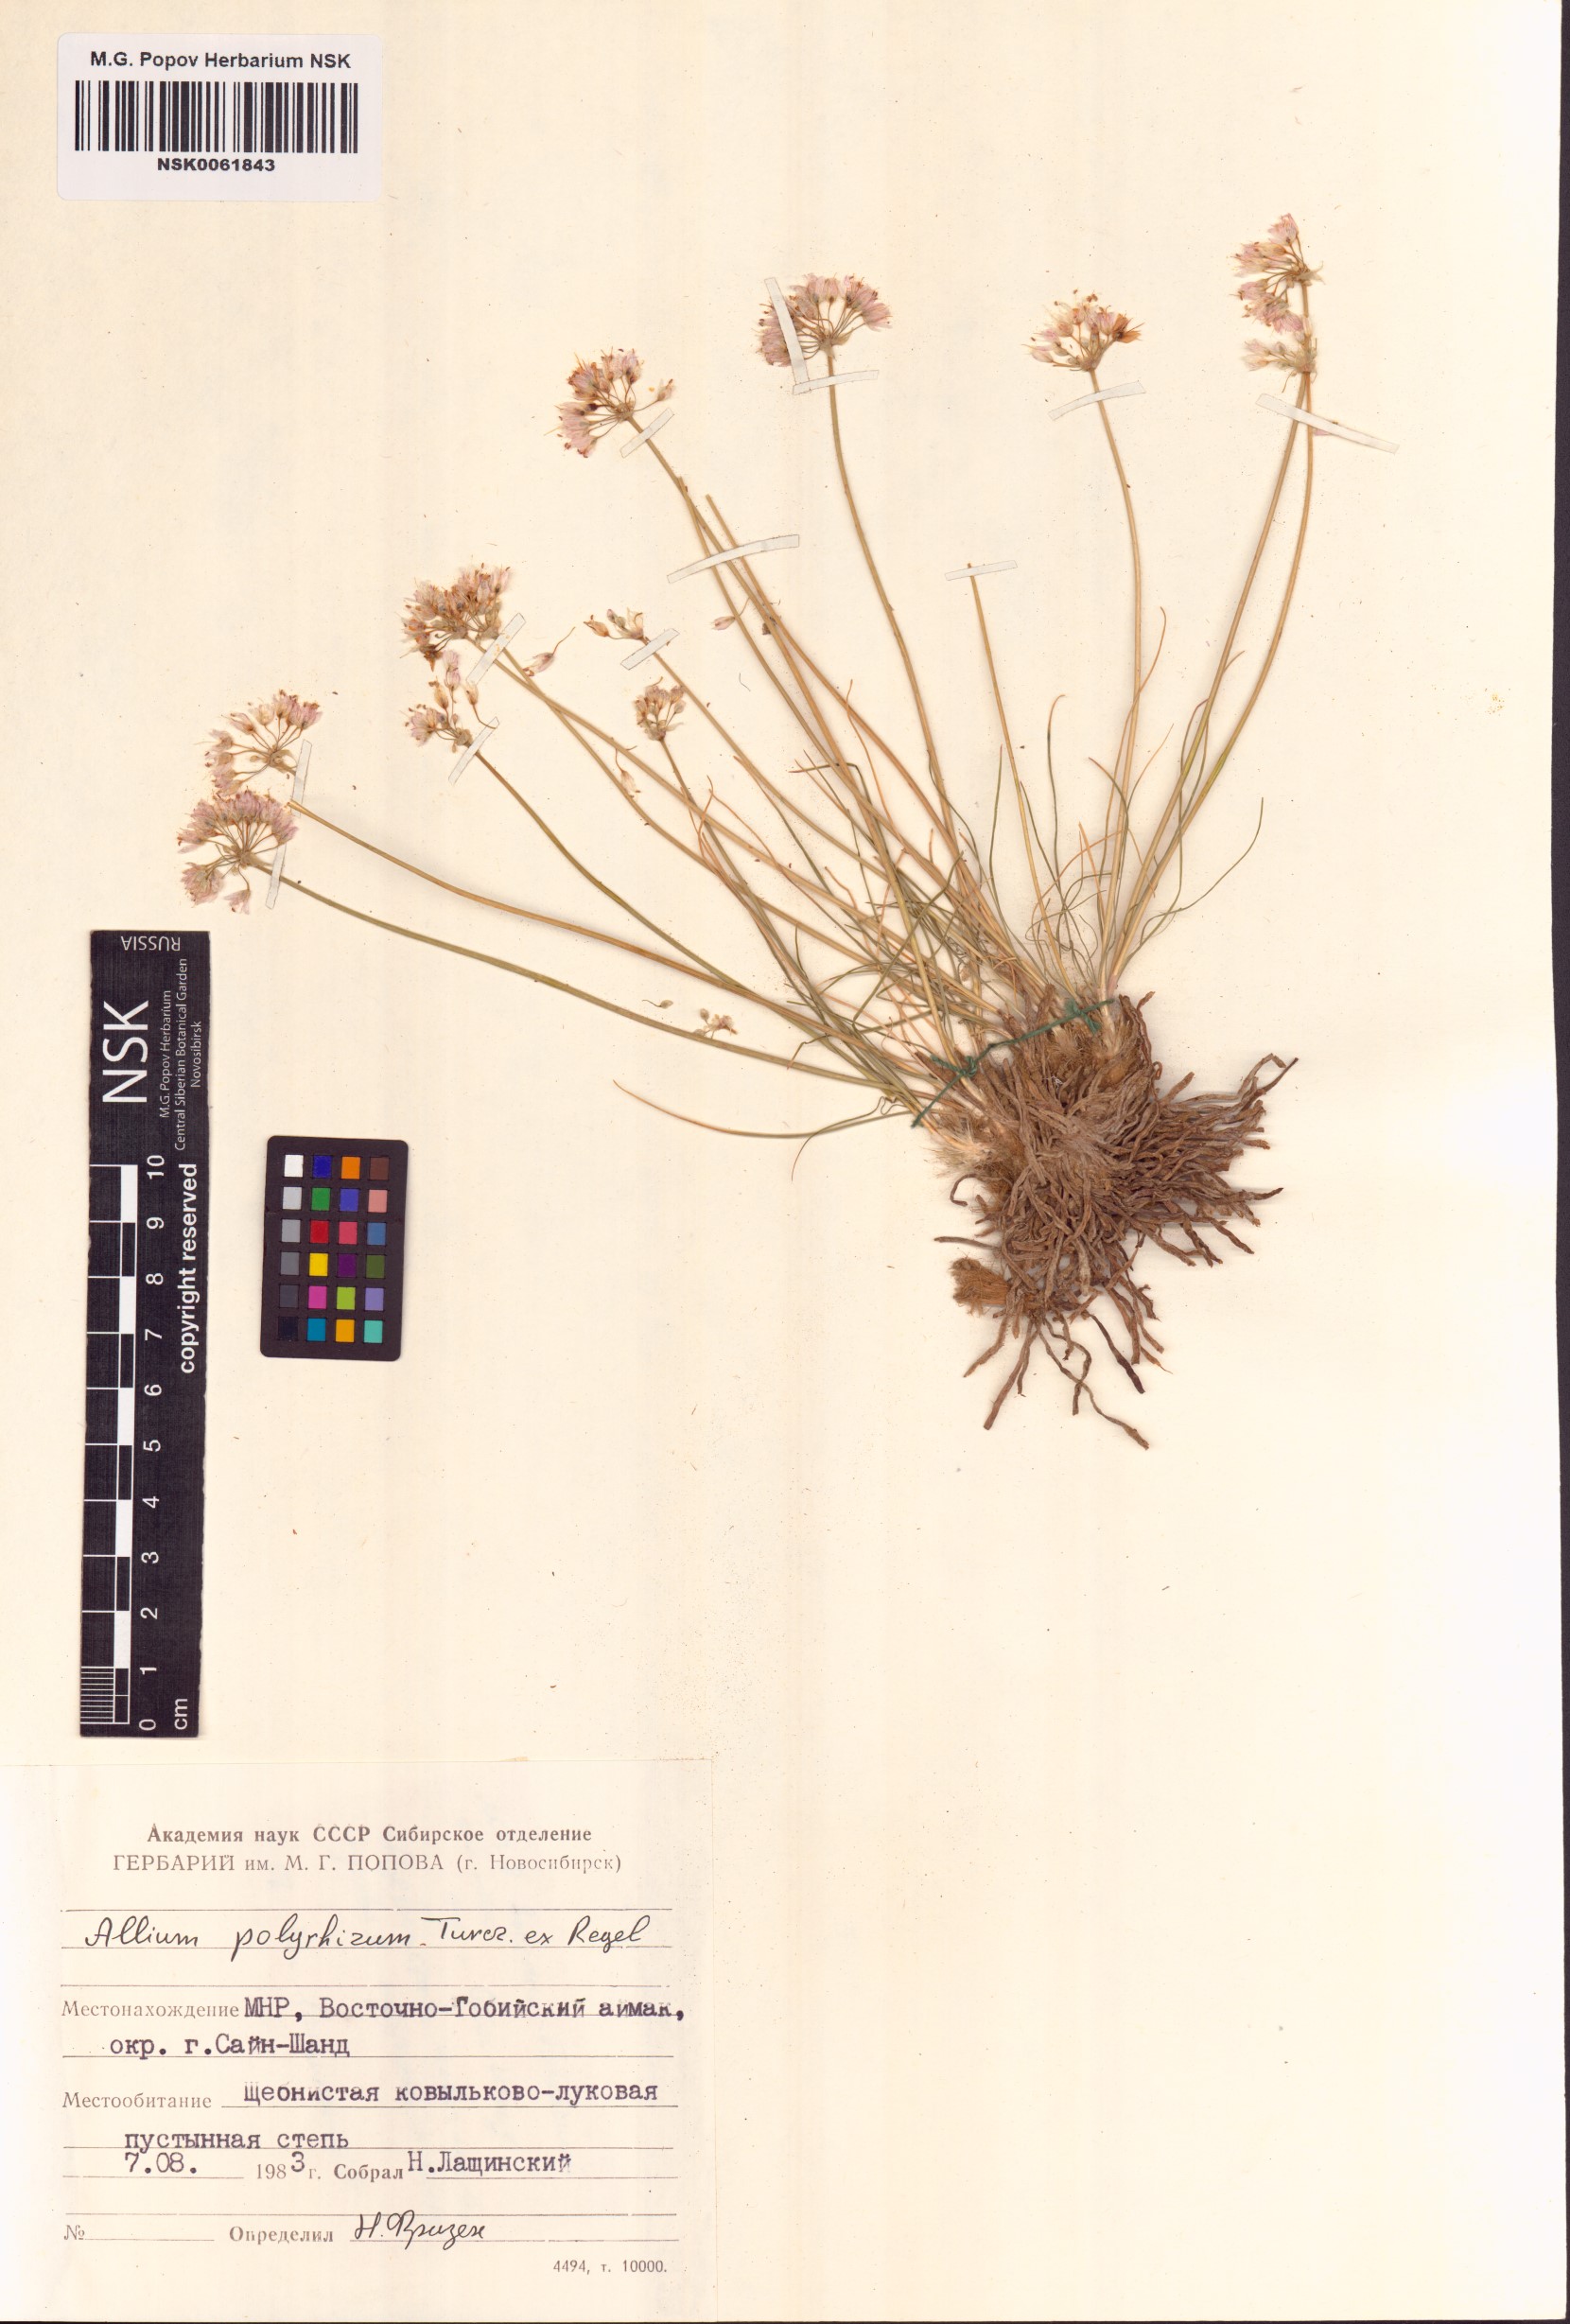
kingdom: Plantae
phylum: Tracheophyta
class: Liliopsida
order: Asparagales
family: Amaryllidaceae
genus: Allium
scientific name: Allium polyrhizum
